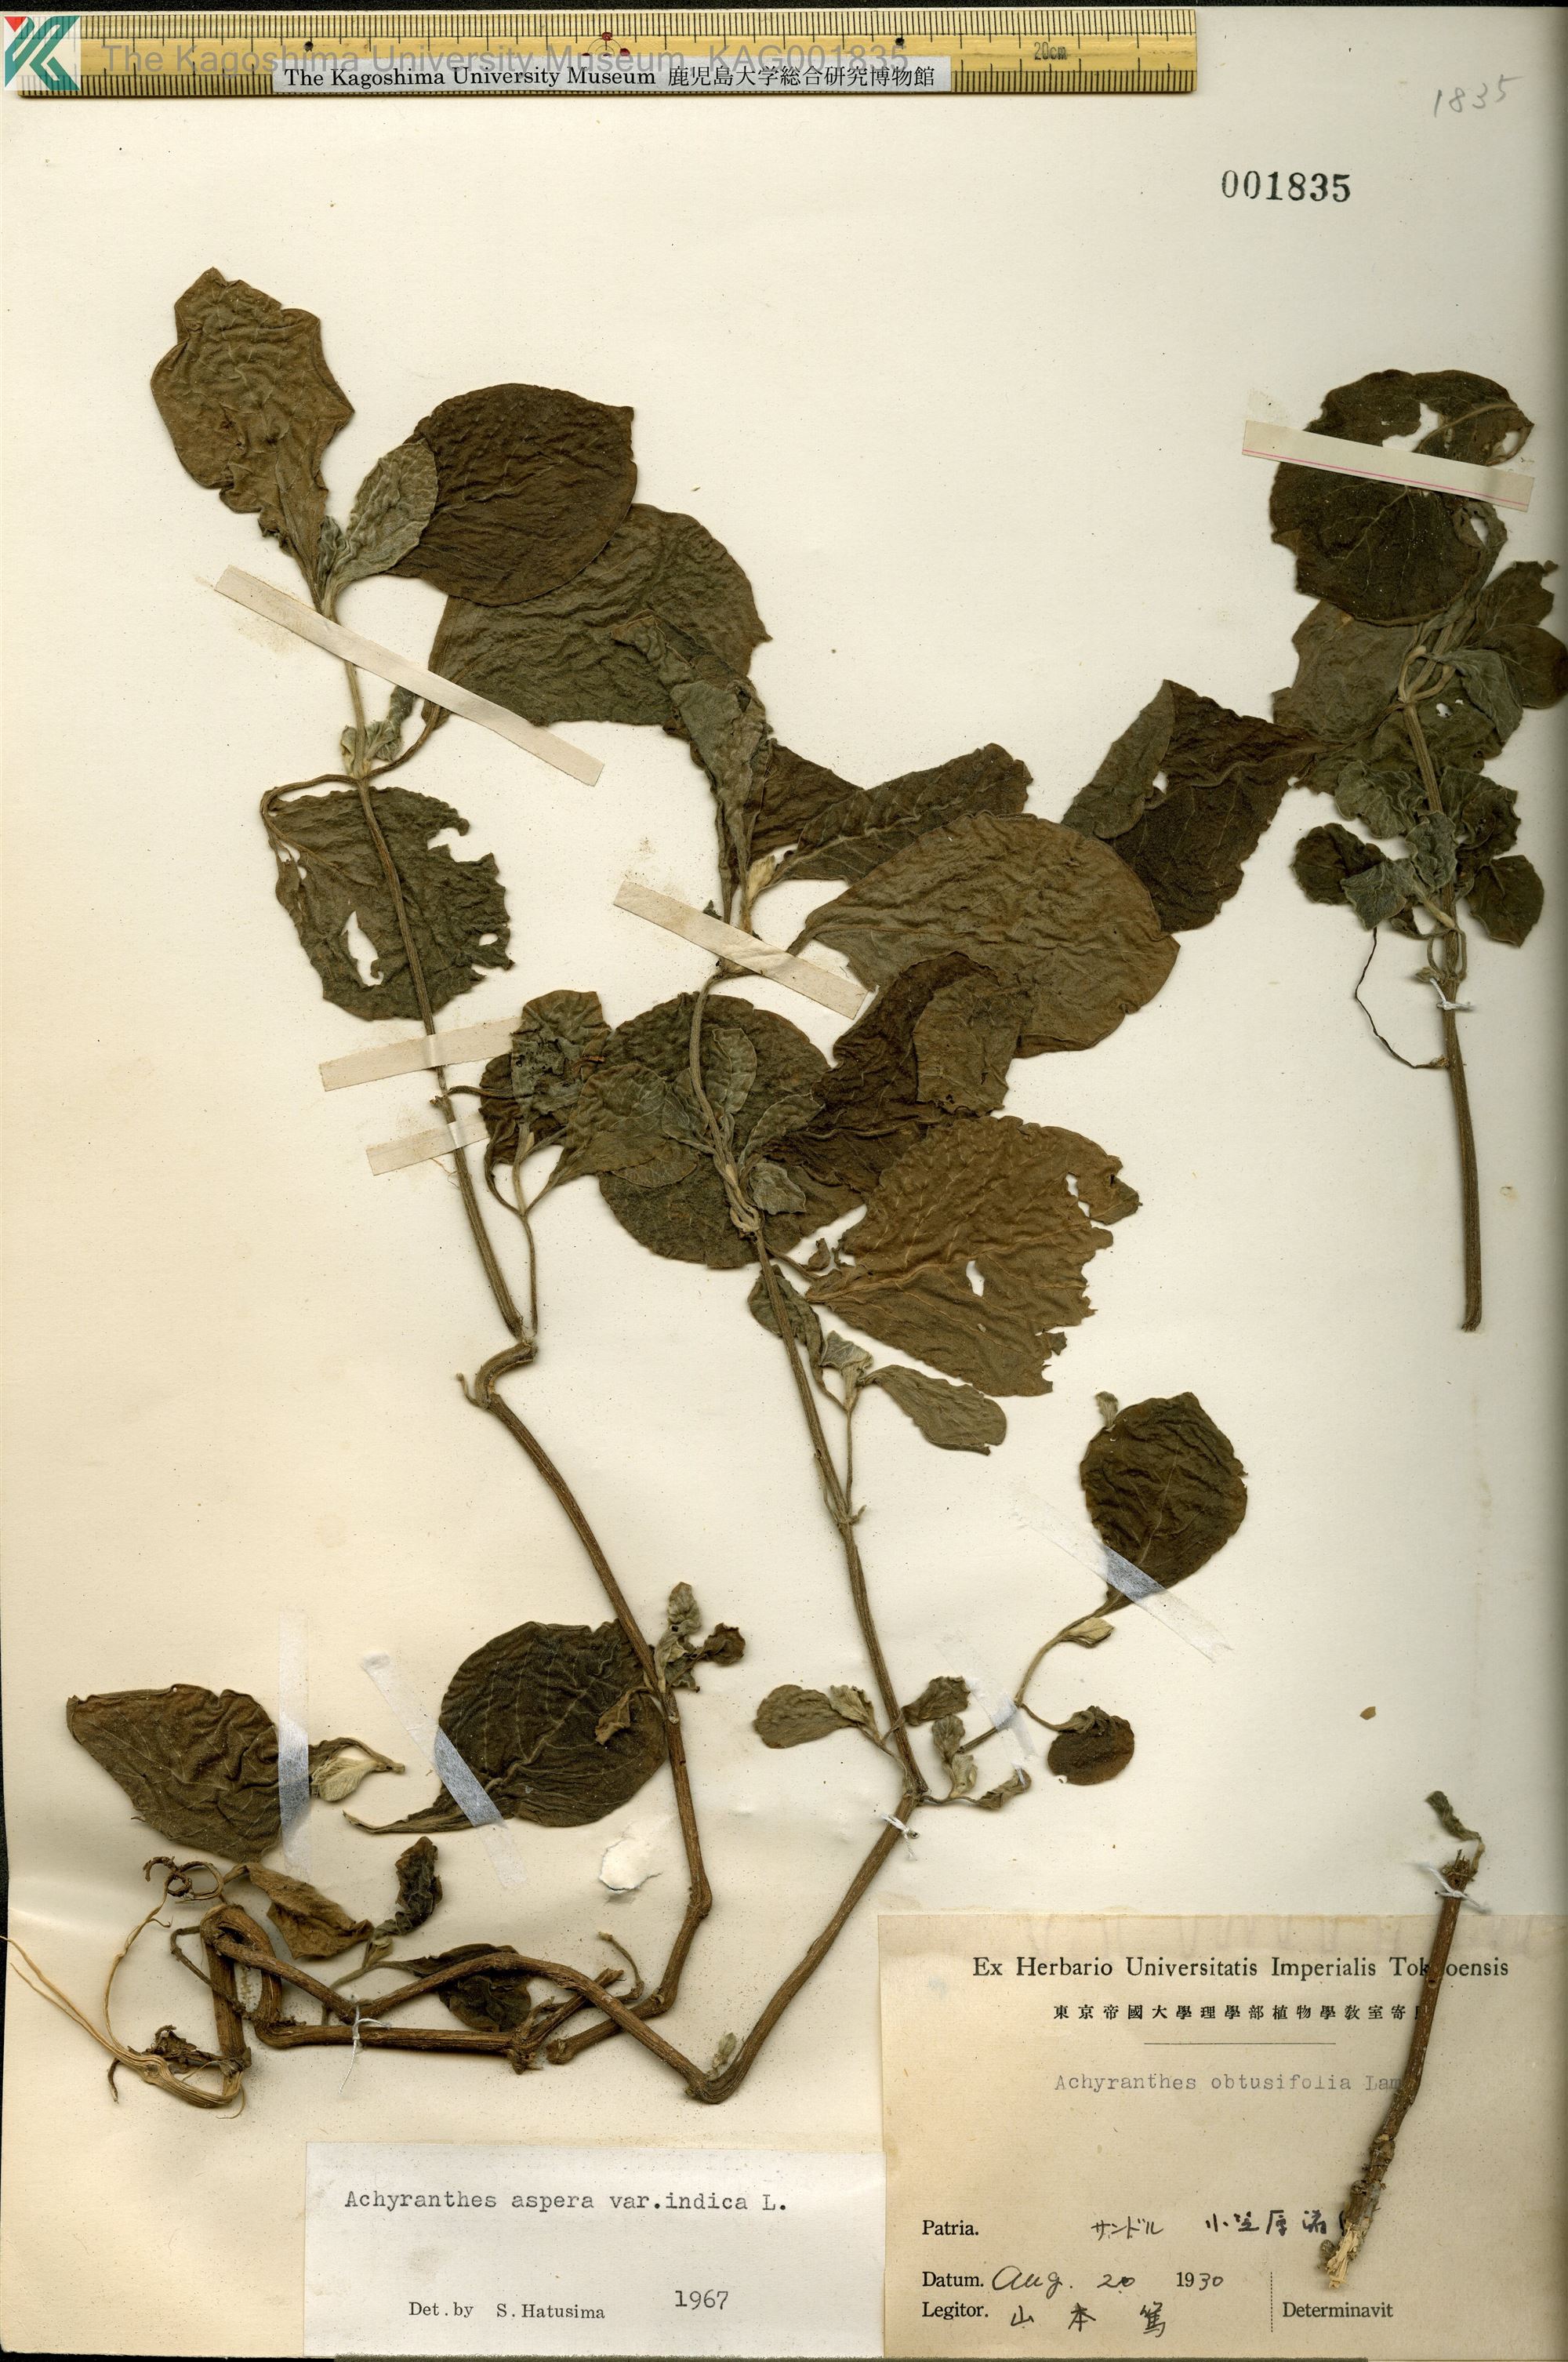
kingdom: Plantae
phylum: Tracheophyta
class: Magnoliopsida
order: Caryophyllales
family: Amaranthaceae
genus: Achyranthes
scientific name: Achyranthes aspera
